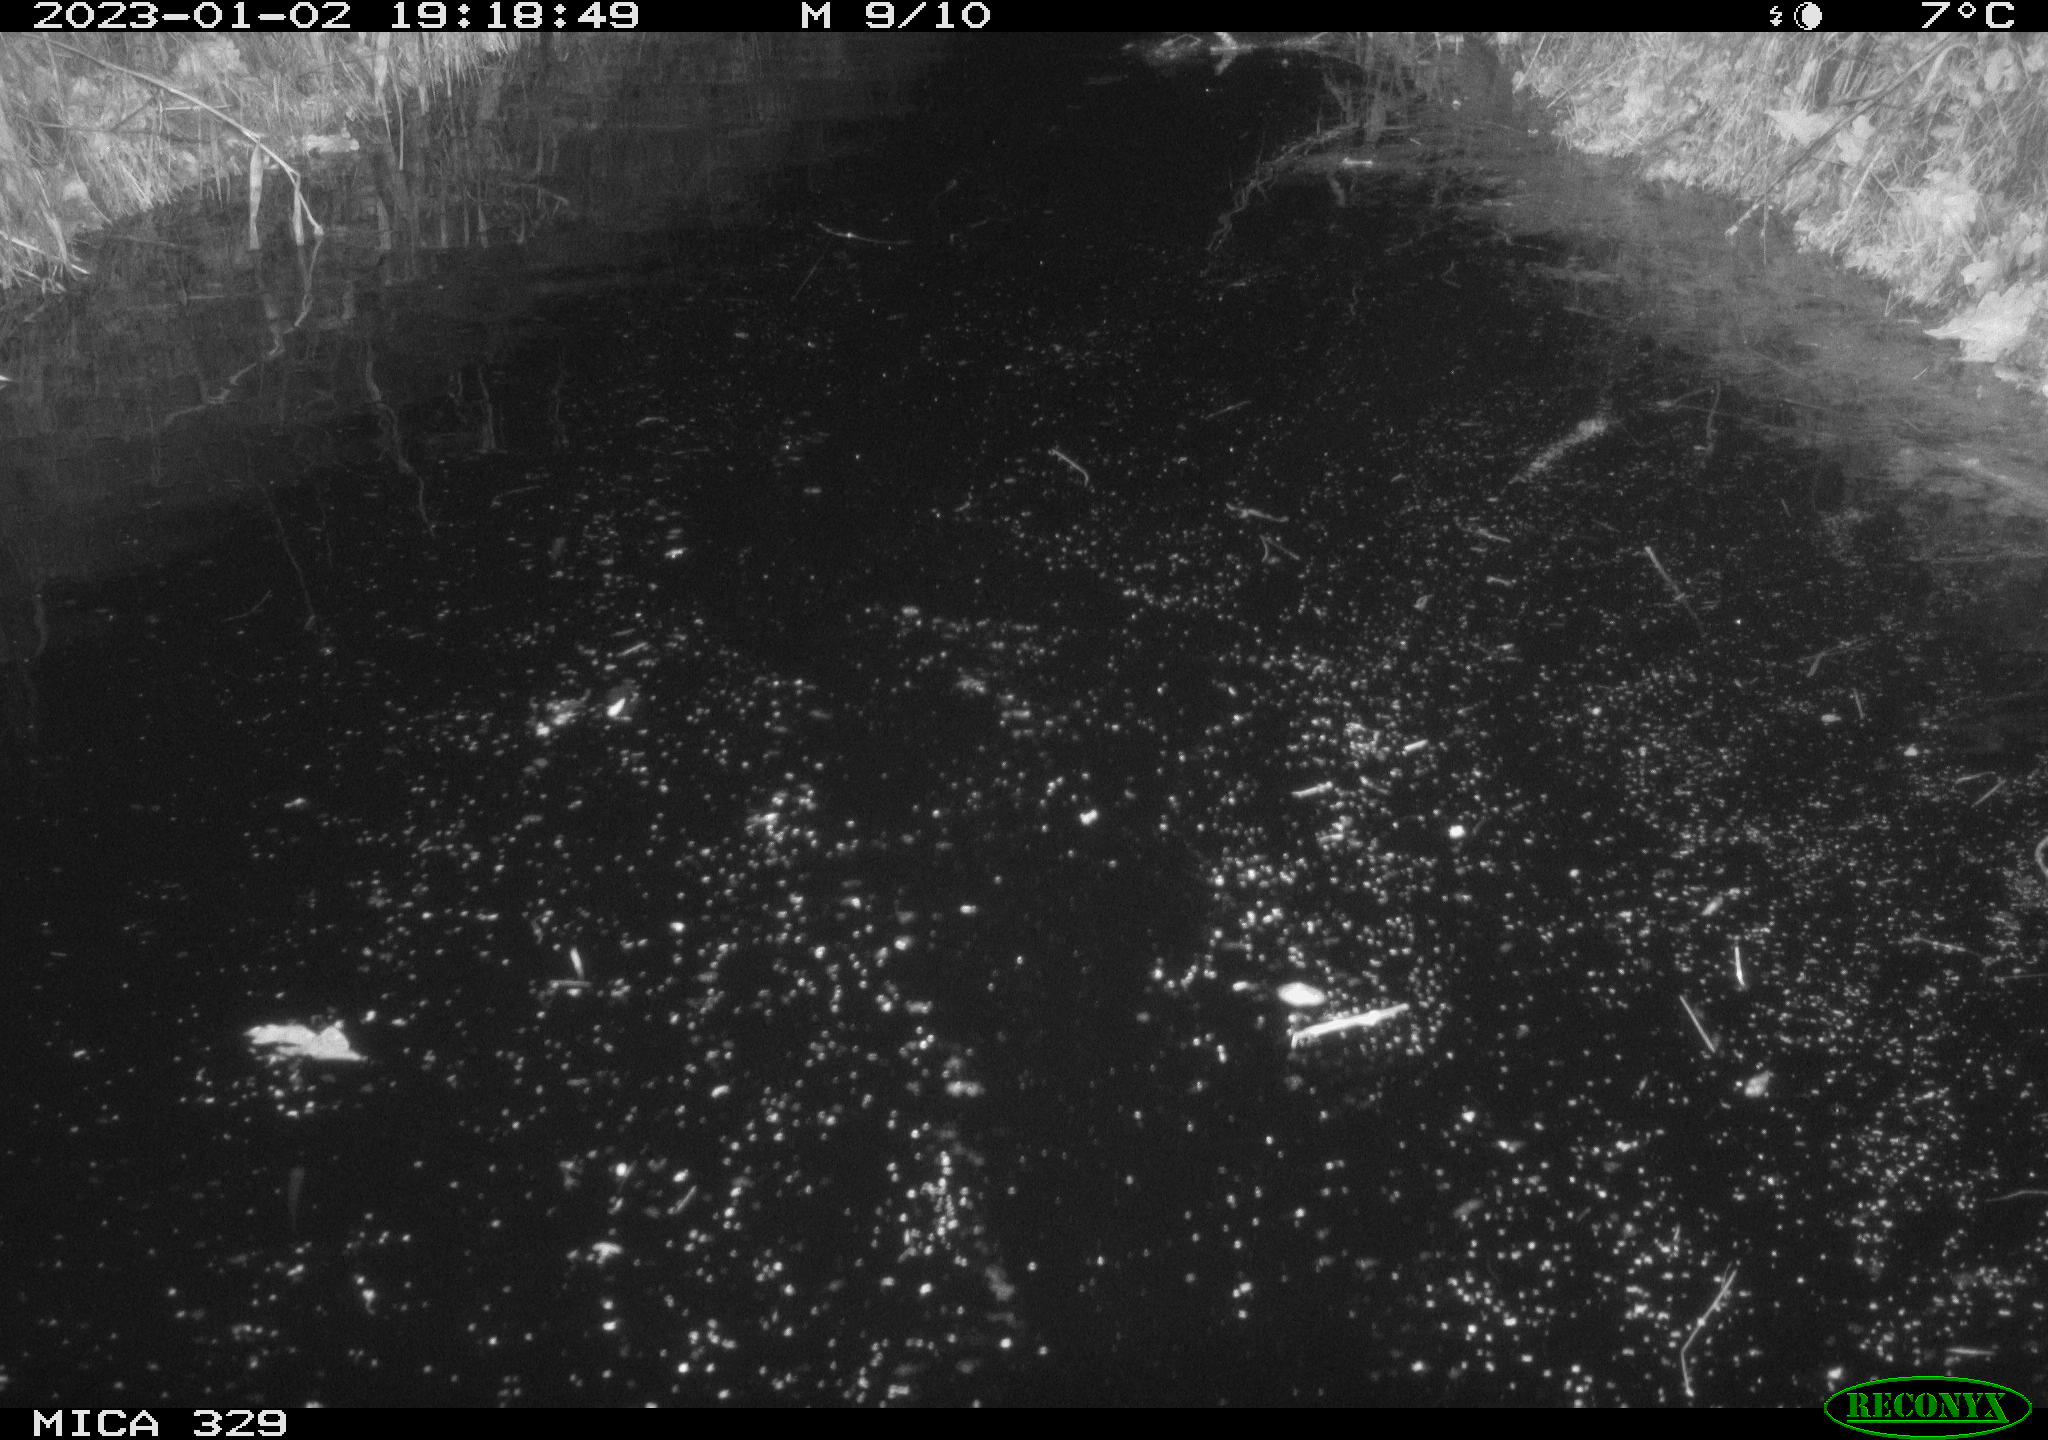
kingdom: Animalia
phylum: Chordata
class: Mammalia
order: Rodentia
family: Cricetidae
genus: Ondatra
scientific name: Ondatra zibethicus
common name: Muskrat
